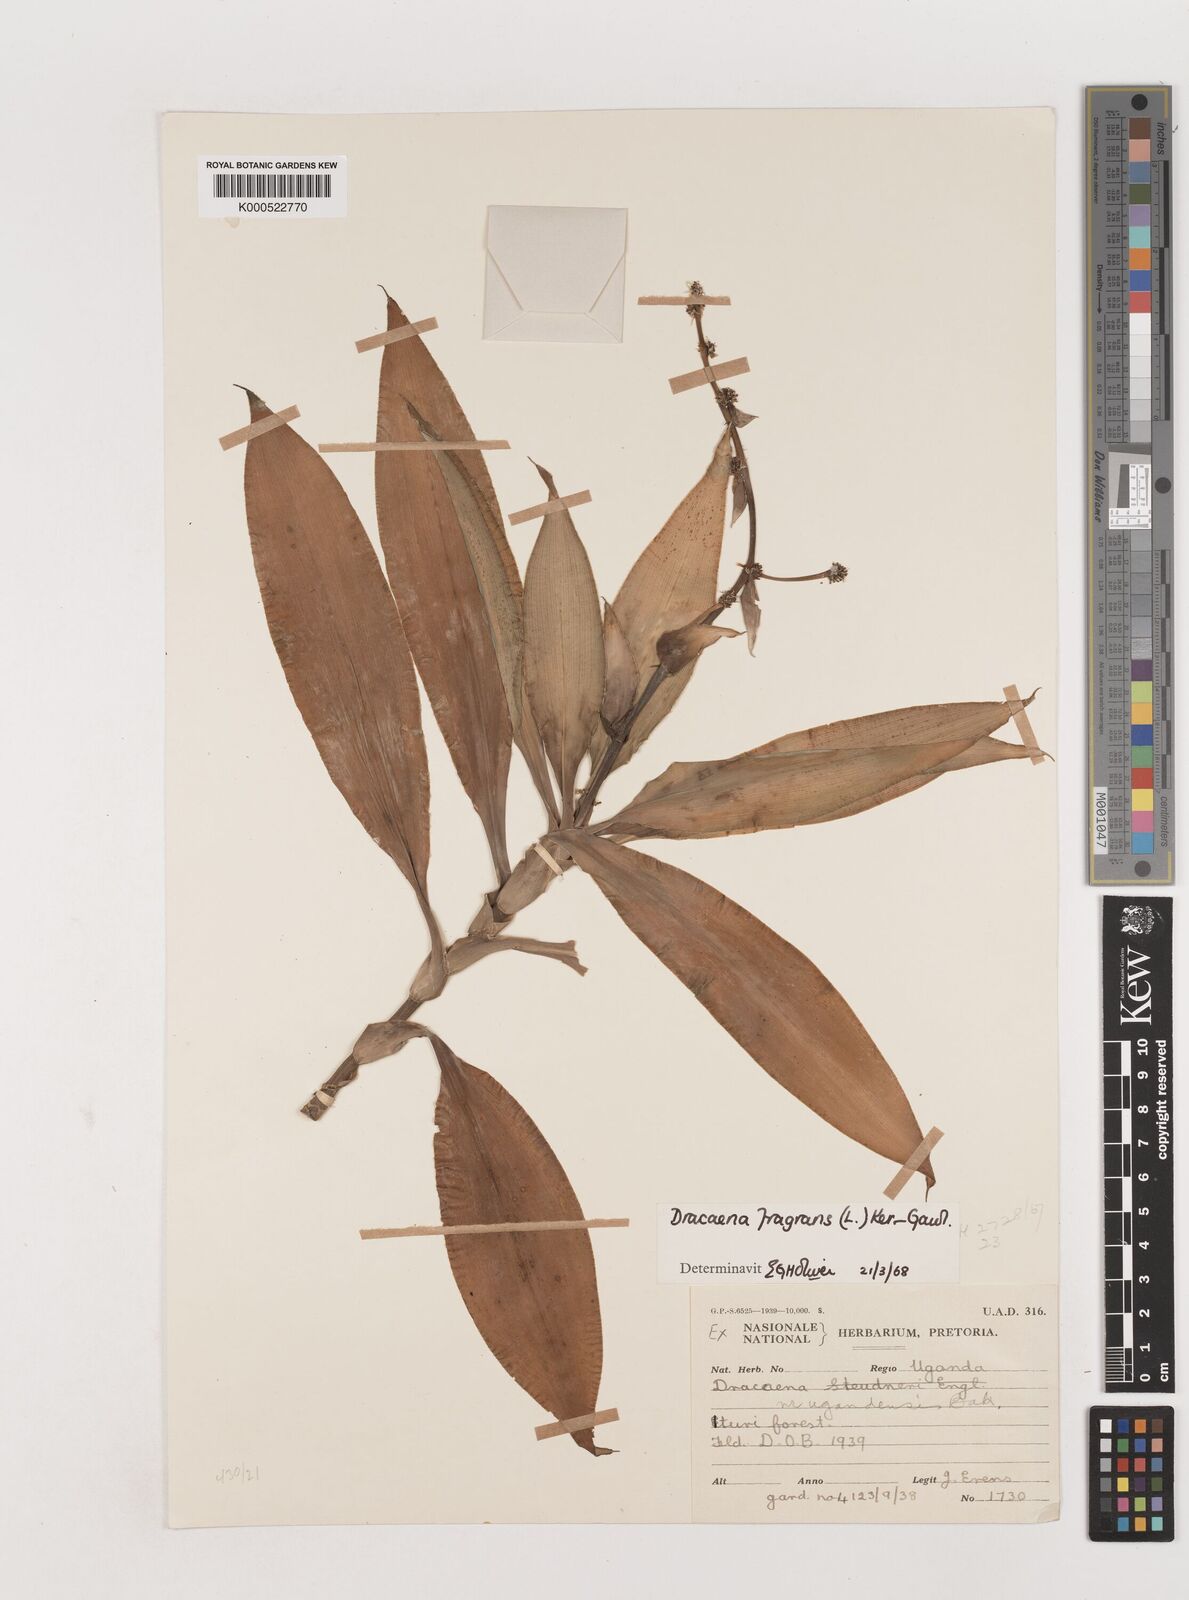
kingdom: Plantae
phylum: Tracheophyta
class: Liliopsida
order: Asparagales
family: Asparagaceae
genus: Dracaena
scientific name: Dracaena fragrans
